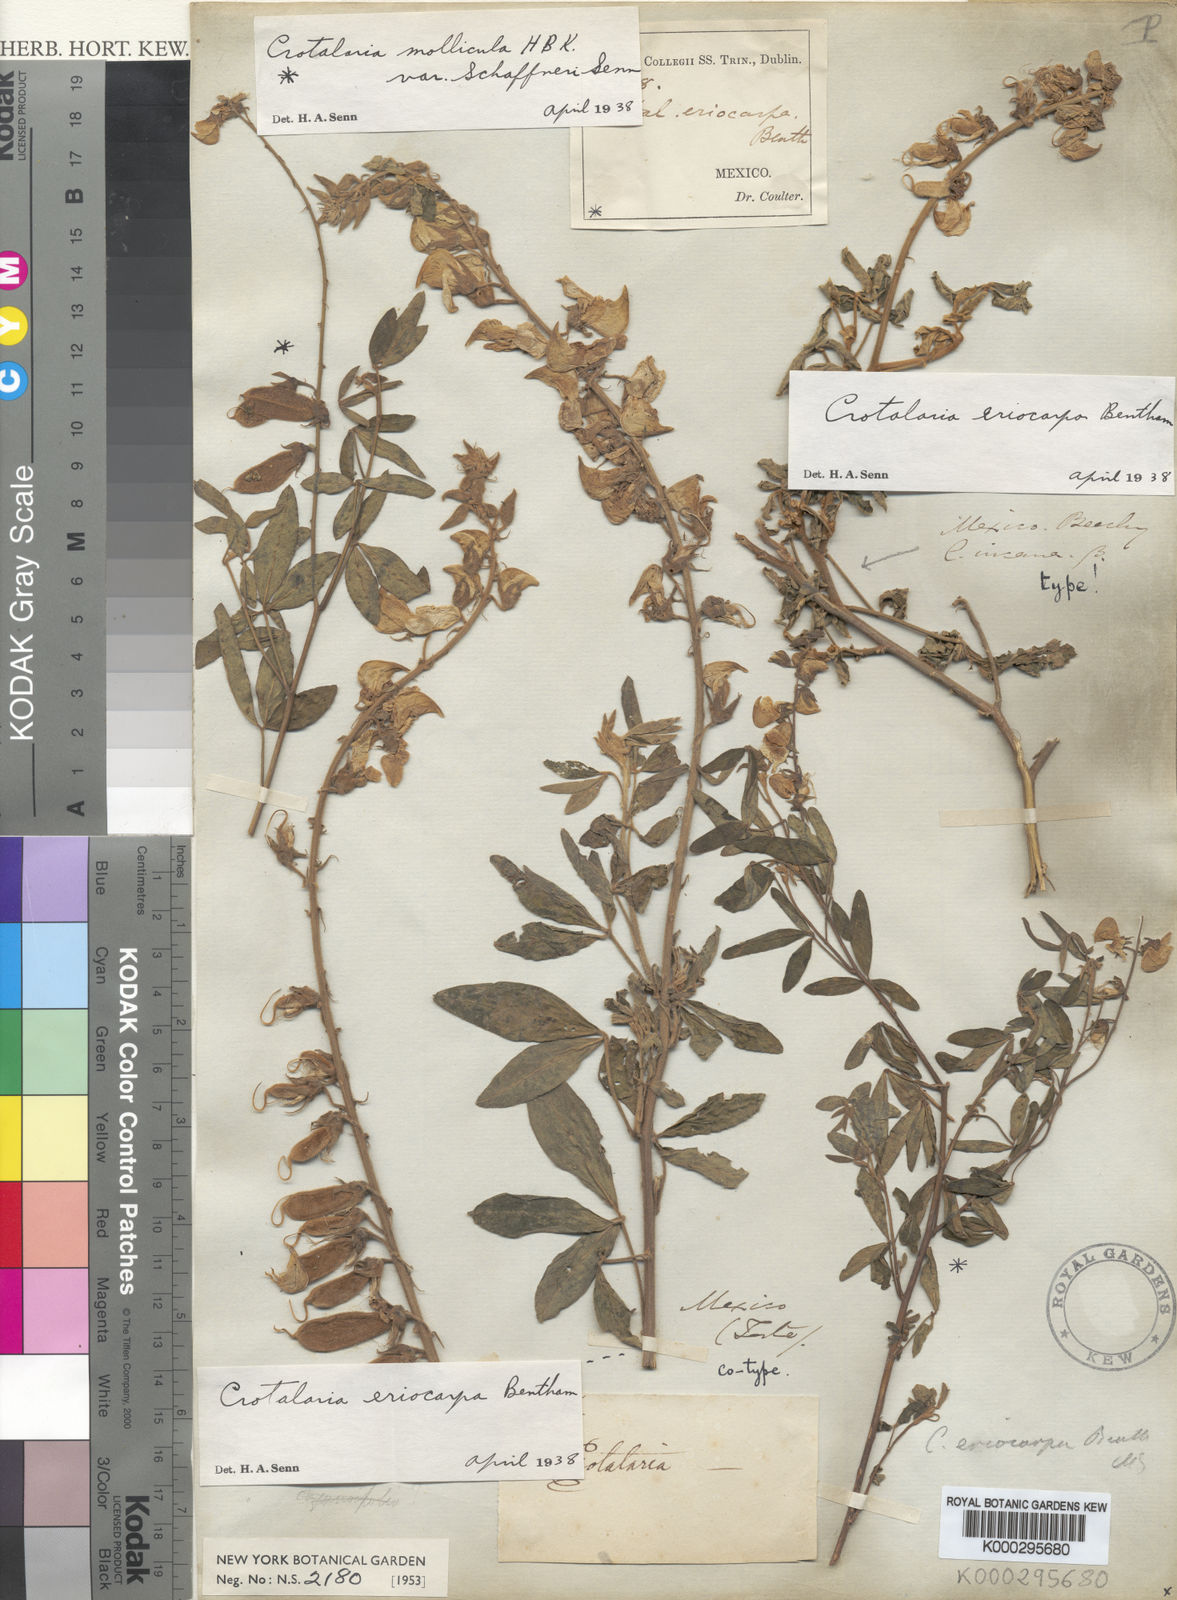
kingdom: Plantae
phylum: Tracheophyta
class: Magnoliopsida
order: Fabales
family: Fabaceae
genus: Crotalaria
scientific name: Crotalaria eriocarpa
